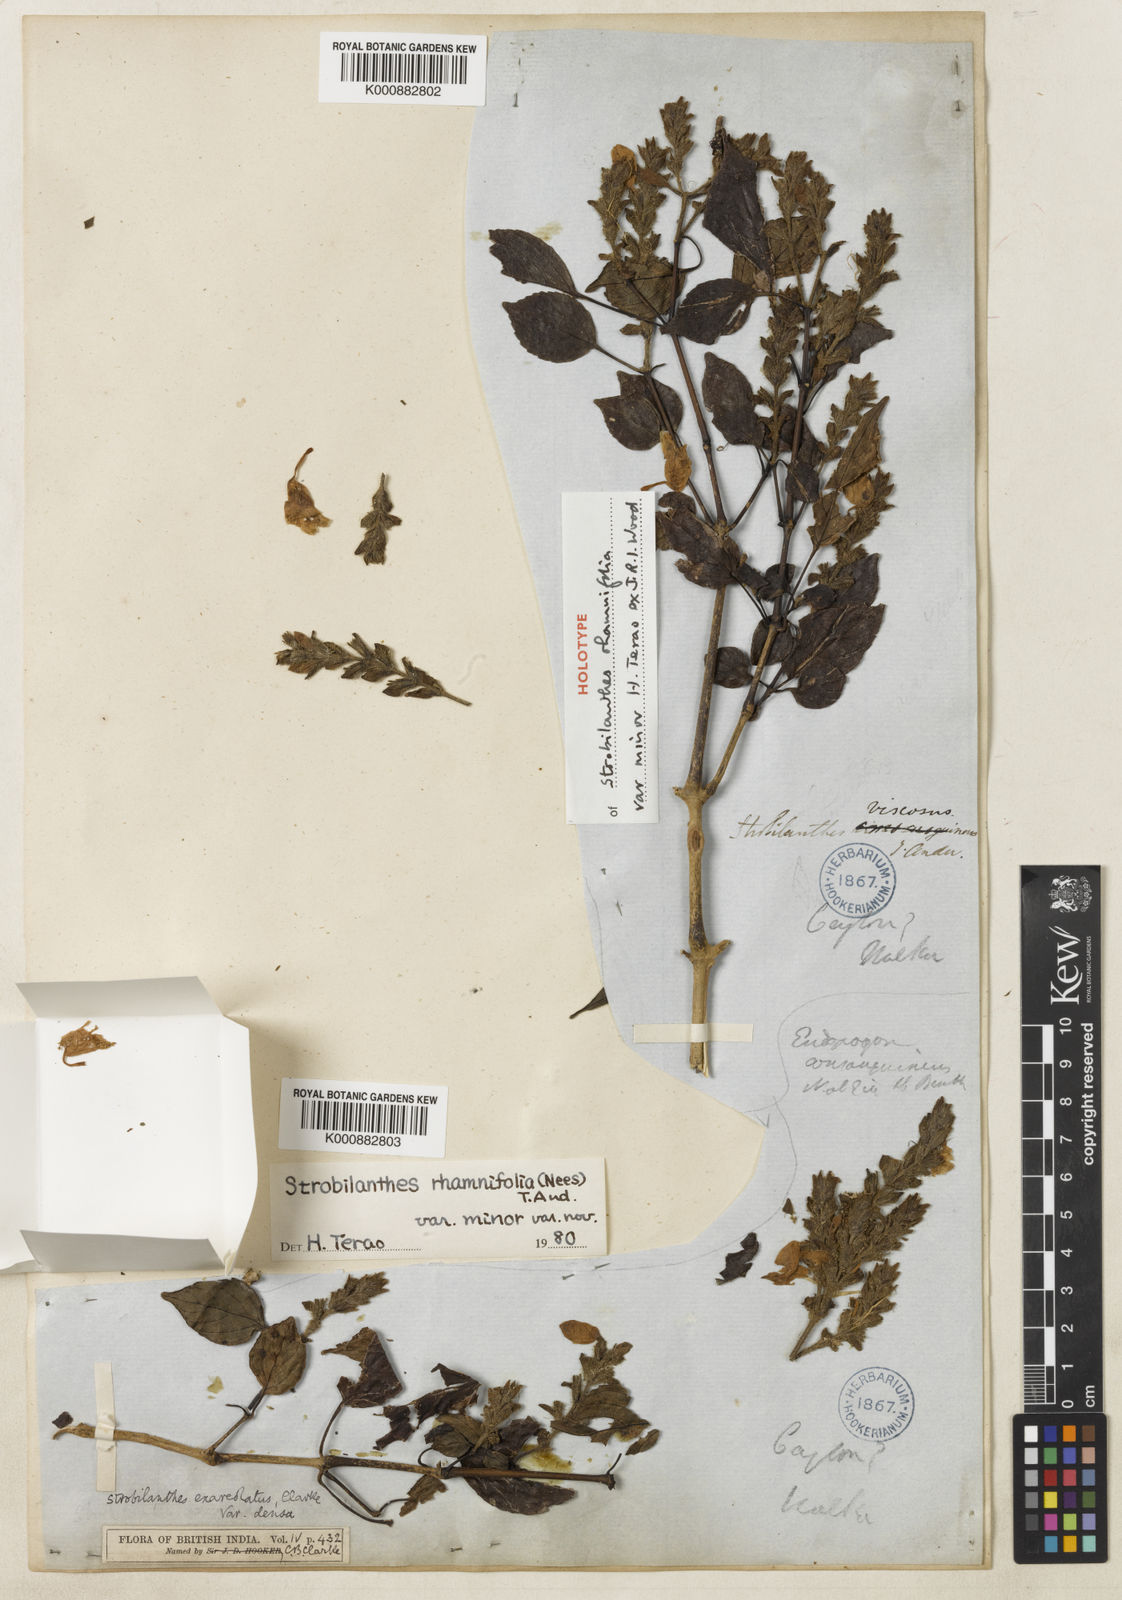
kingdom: Plantae
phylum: Tracheophyta
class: Magnoliopsida
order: Lamiales
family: Acanthaceae
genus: Strobilanthes
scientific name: Strobilanthes rhamnifolia
